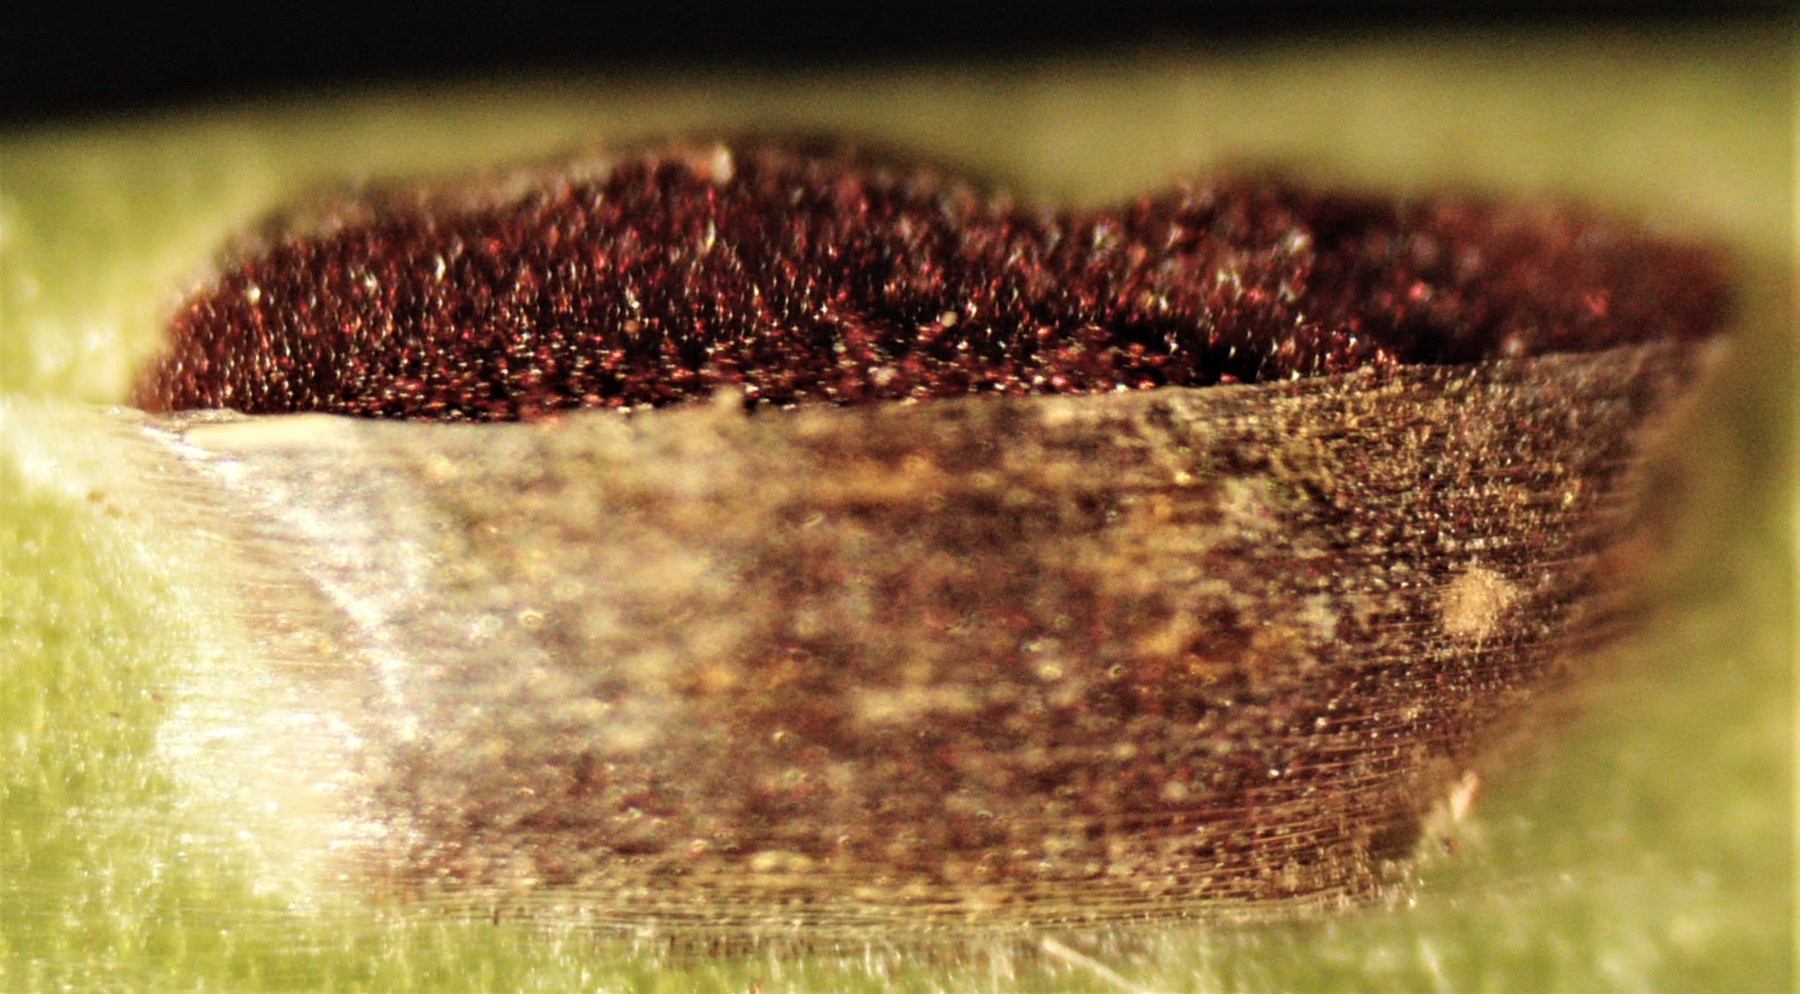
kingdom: Fungi
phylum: Basidiomycota
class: Ustilaginomycetes
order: Urocystidales
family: Urocystidaceae
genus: Vankya
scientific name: Vankya ornithogali
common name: Yellow star-of-bethlehem smut
